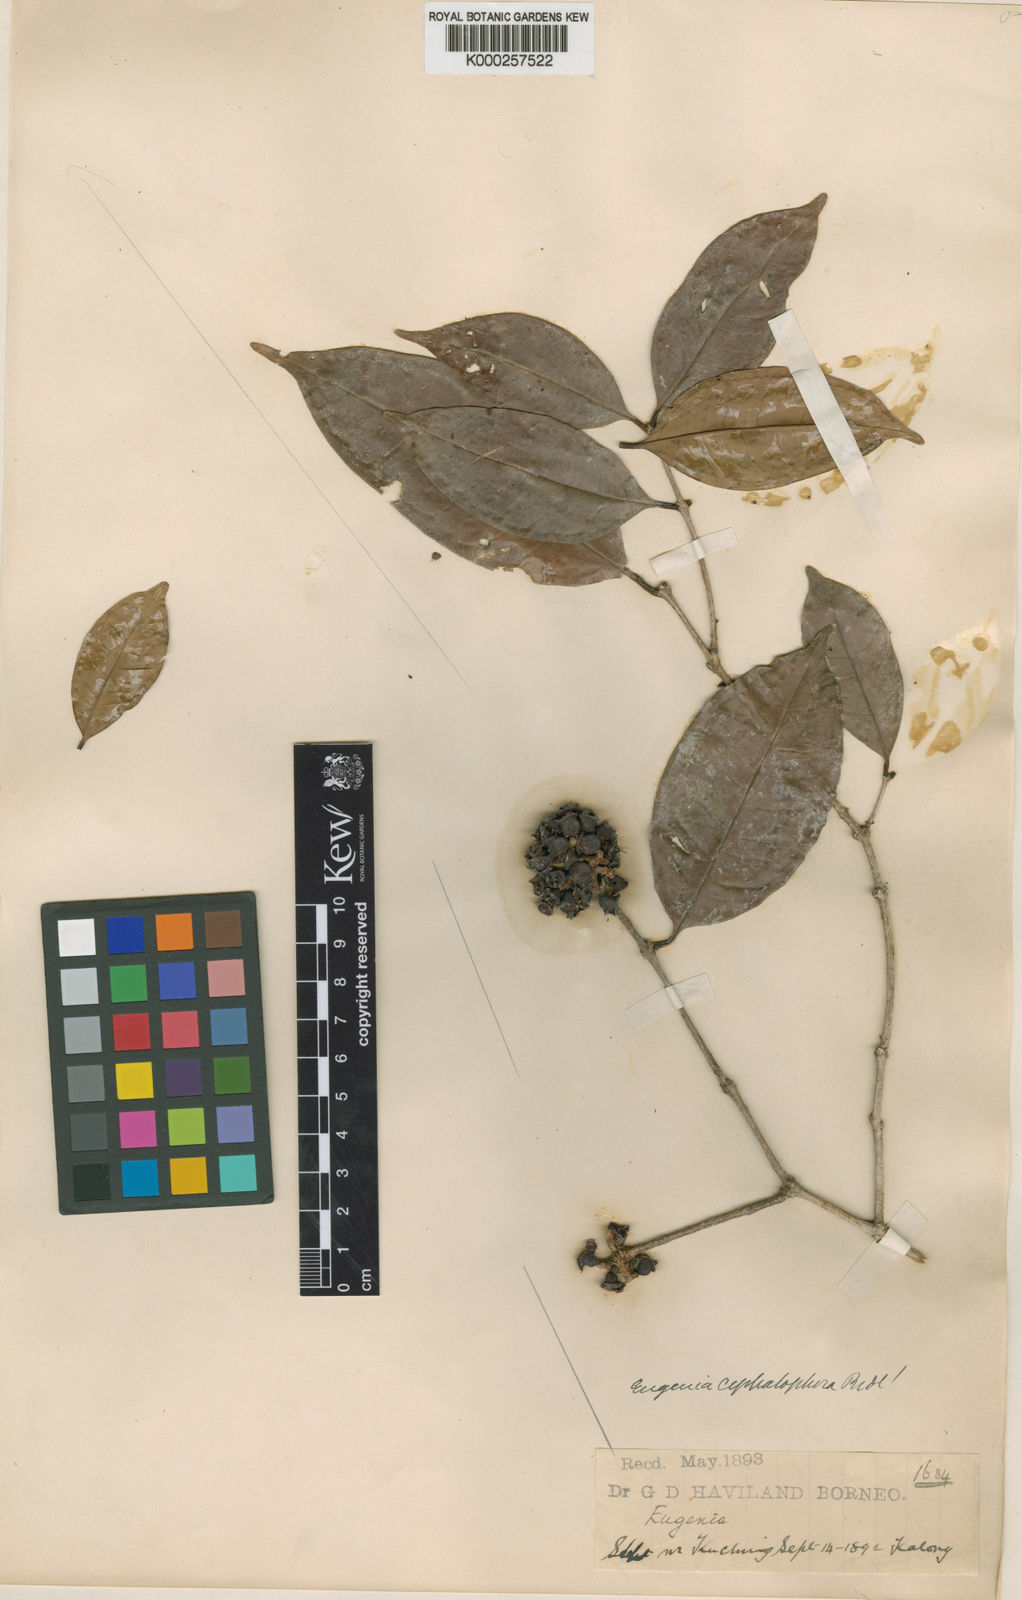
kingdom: Plantae
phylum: Tracheophyta
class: Magnoliopsida
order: Myrtales
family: Myrtaceae
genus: Syzygium
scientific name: Syzygium cephalophorum
